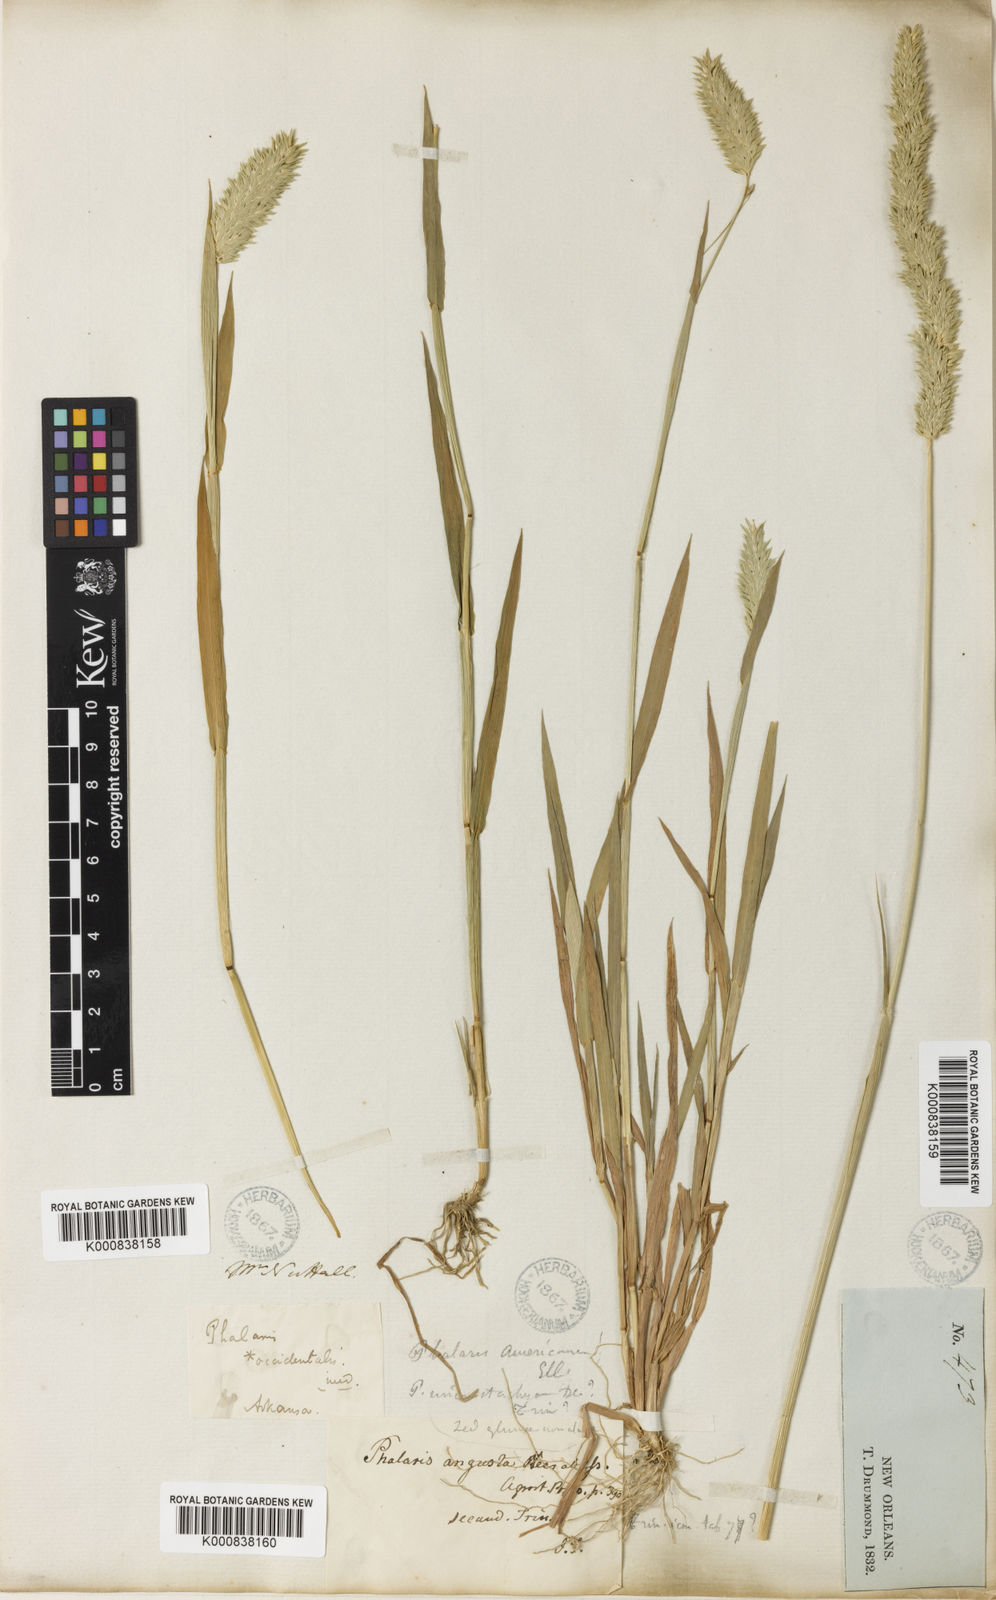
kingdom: Plantae
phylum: Tracheophyta
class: Liliopsida
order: Poales
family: Poaceae
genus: Phalaris
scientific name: Phalaris caroliniana
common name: May grass
